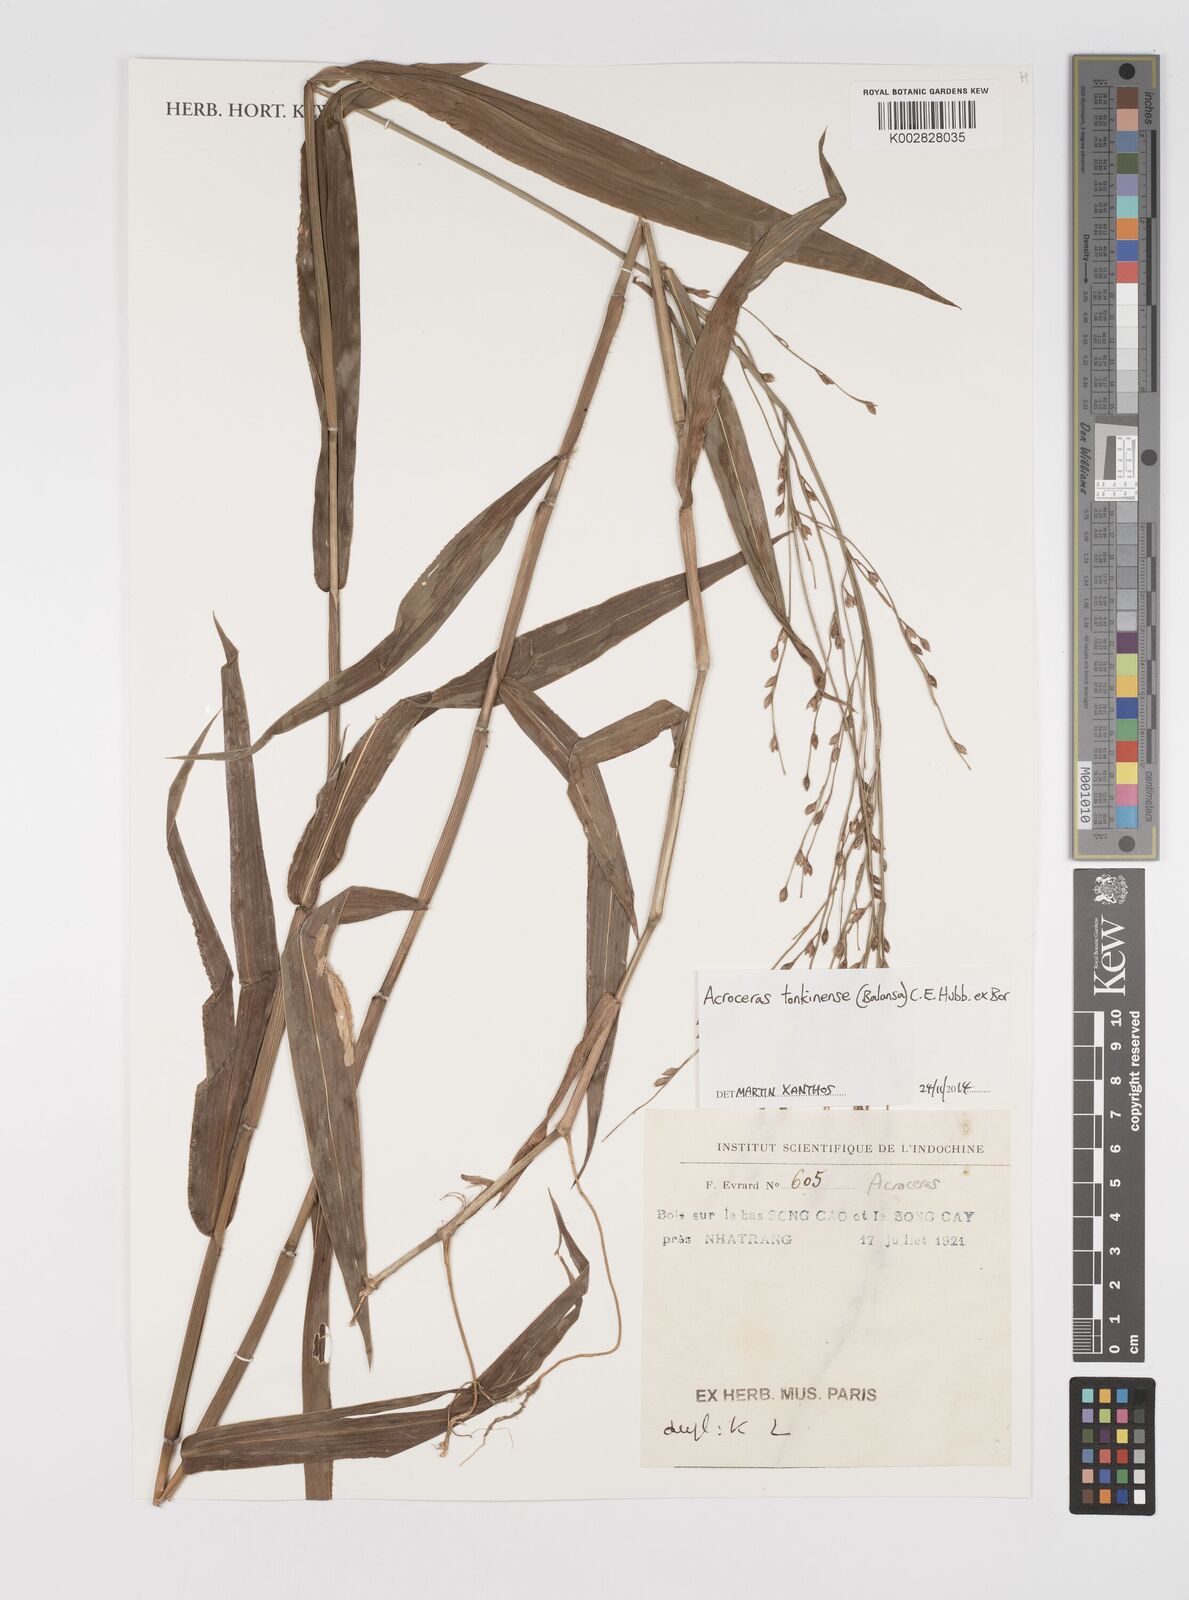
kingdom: Plantae
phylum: Tracheophyta
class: Liliopsida
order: Poales
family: Poaceae
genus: Acroceras
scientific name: Acroceras tonkinense
